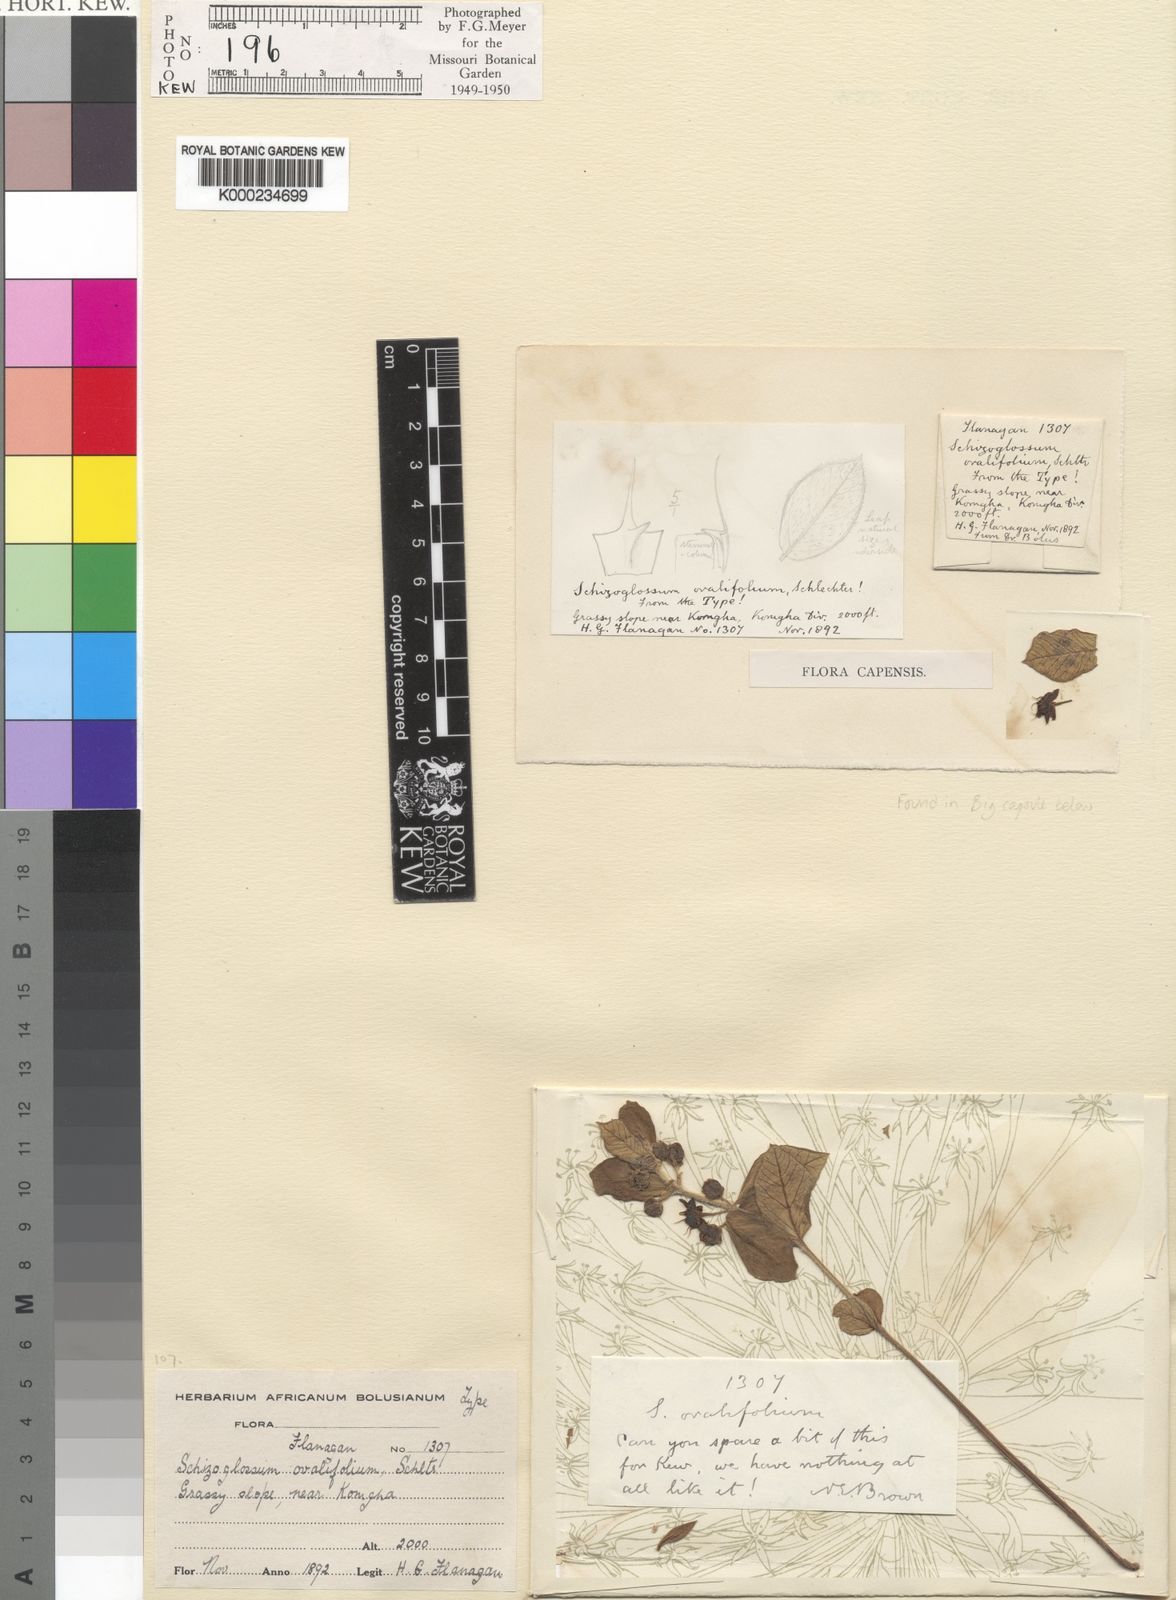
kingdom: Plantae
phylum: Tracheophyta
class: Magnoliopsida
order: Gentianales
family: Apocynaceae
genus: Aspidoglossum
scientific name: Aspidoglossum ovalifolium
